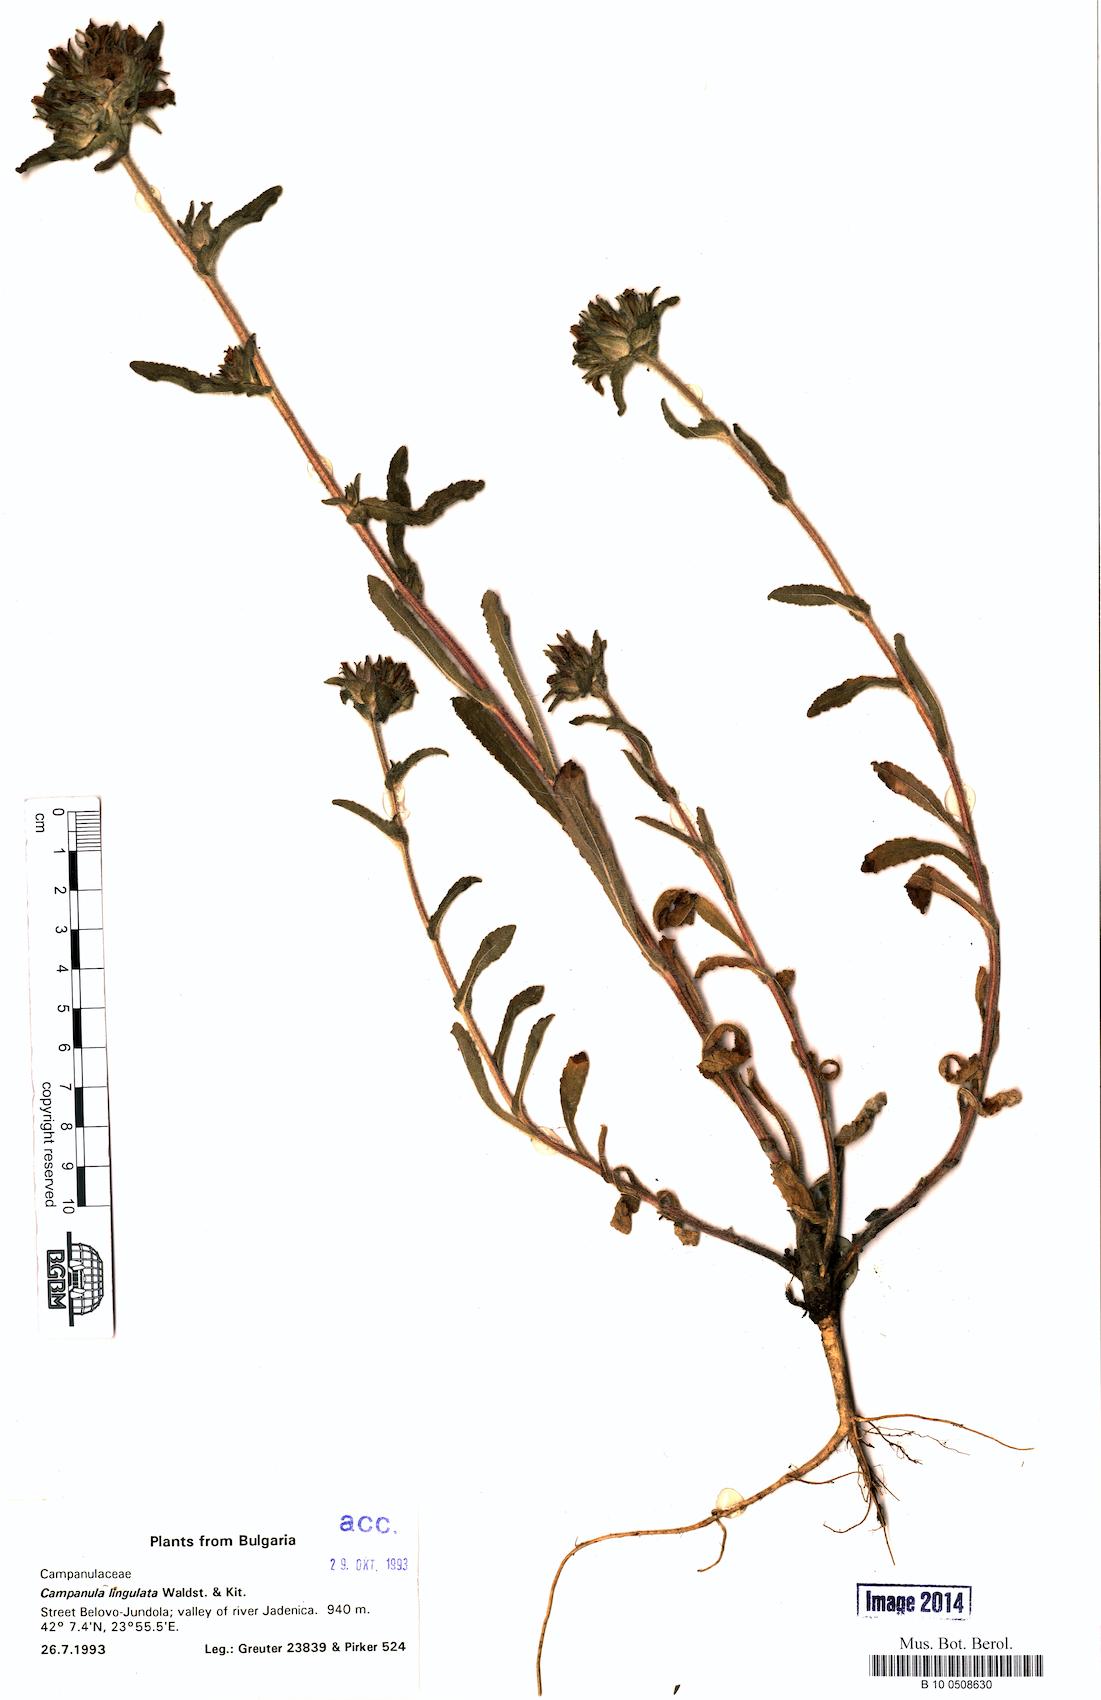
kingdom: Plantae
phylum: Tracheophyta
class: Magnoliopsida
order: Asterales
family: Campanulaceae
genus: Campanula
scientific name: Campanula lingulata
